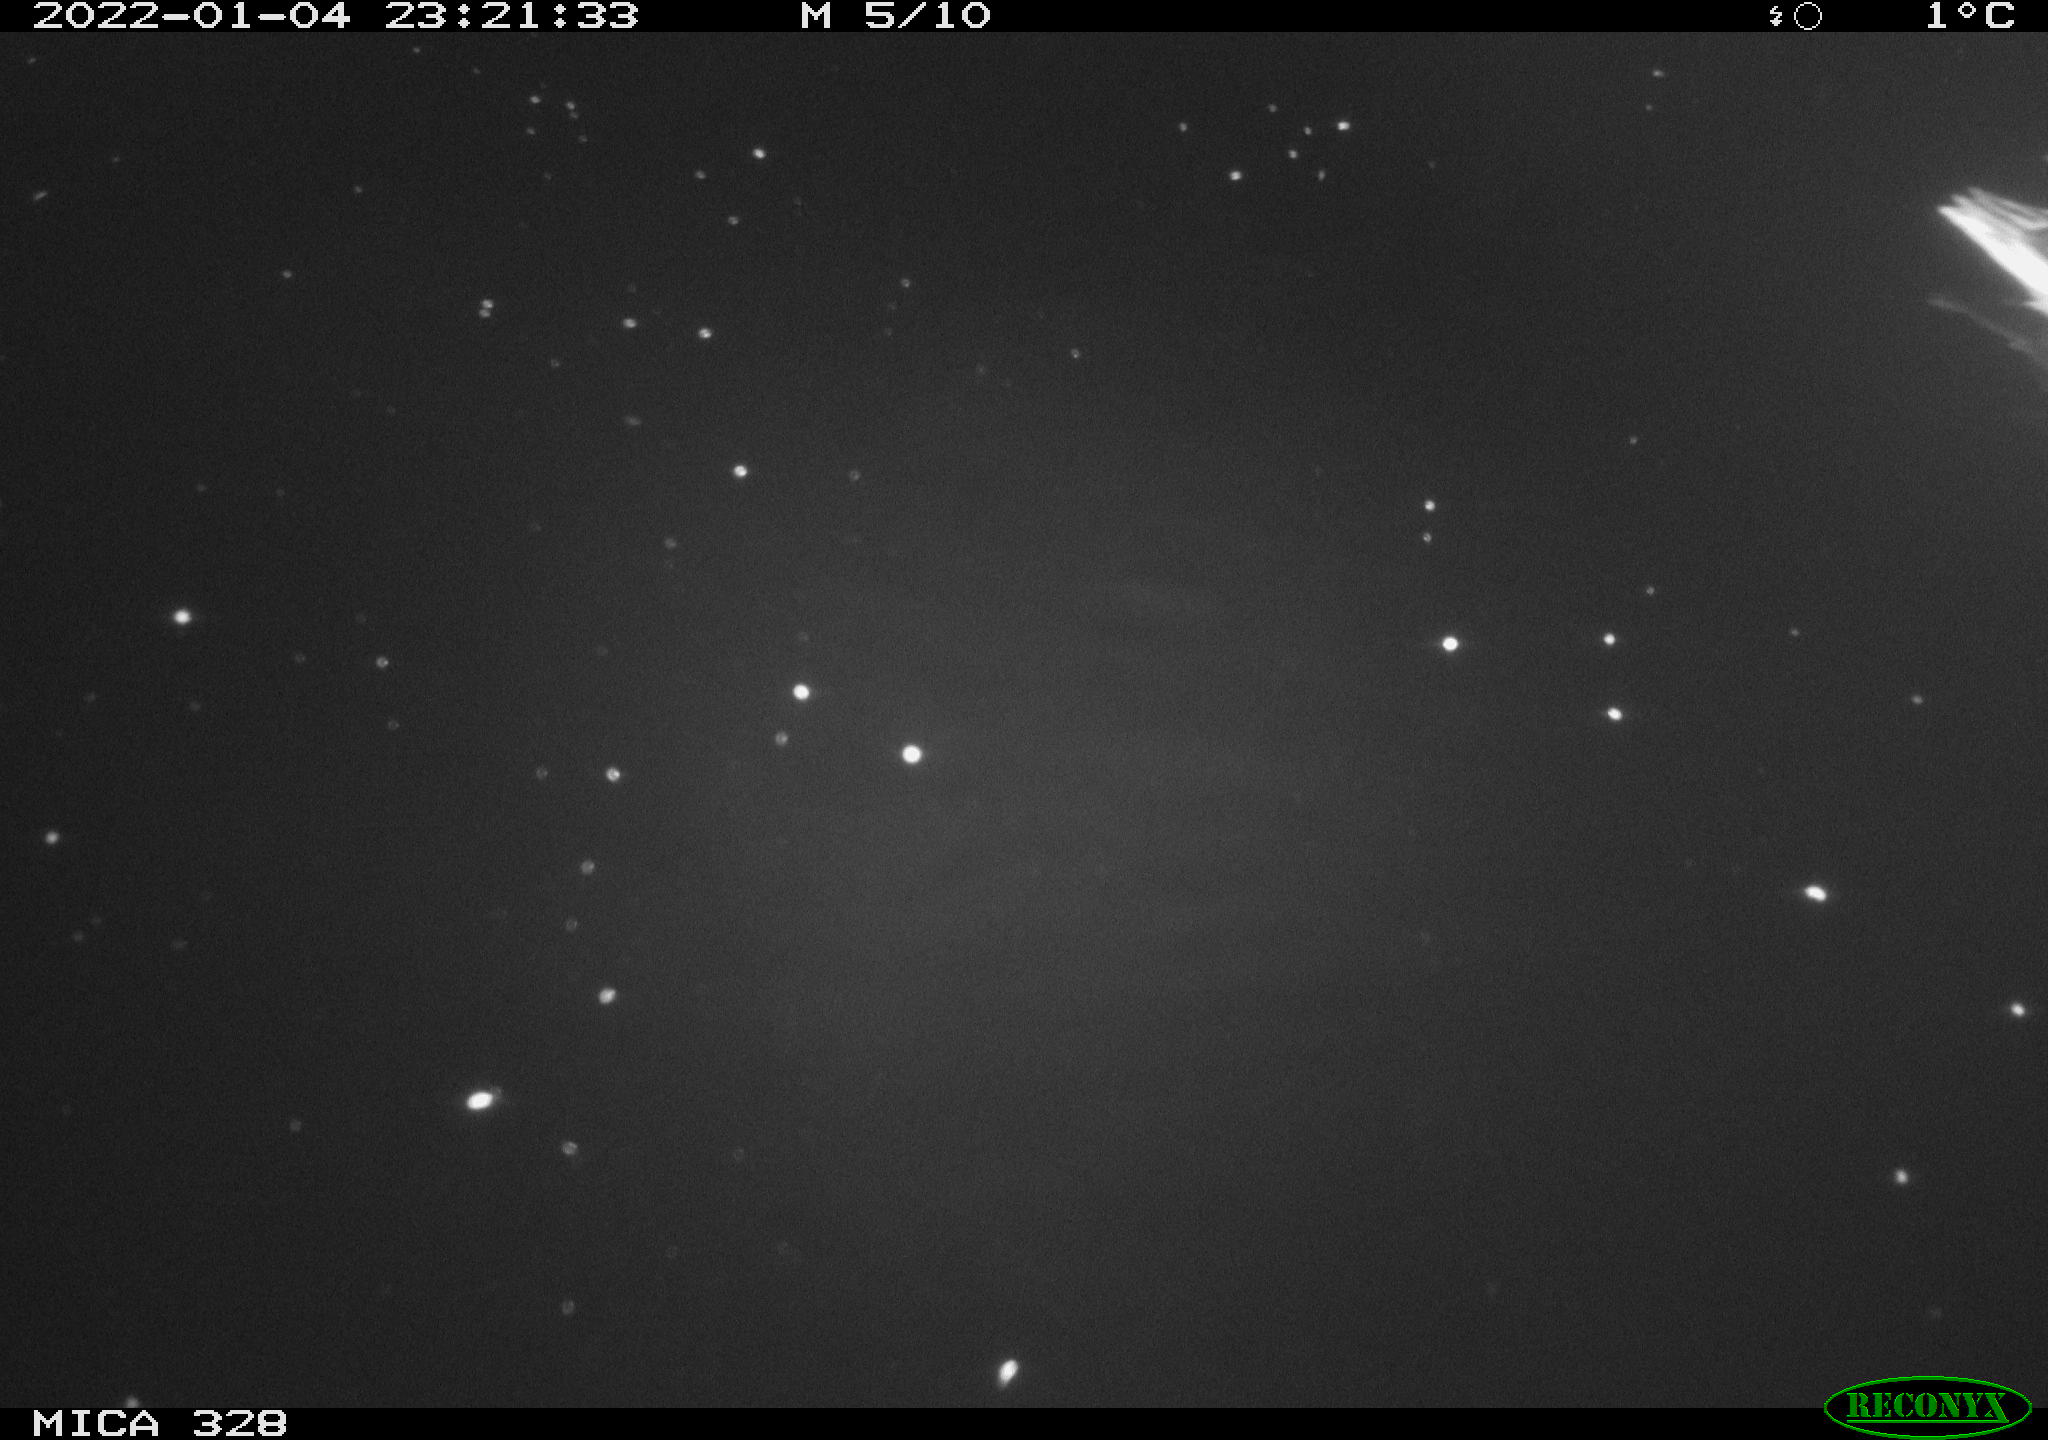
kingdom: Animalia
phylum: Chordata
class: Aves
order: Anseriformes
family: Anatidae
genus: Anas
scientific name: Anas platyrhynchos
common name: Mallard
